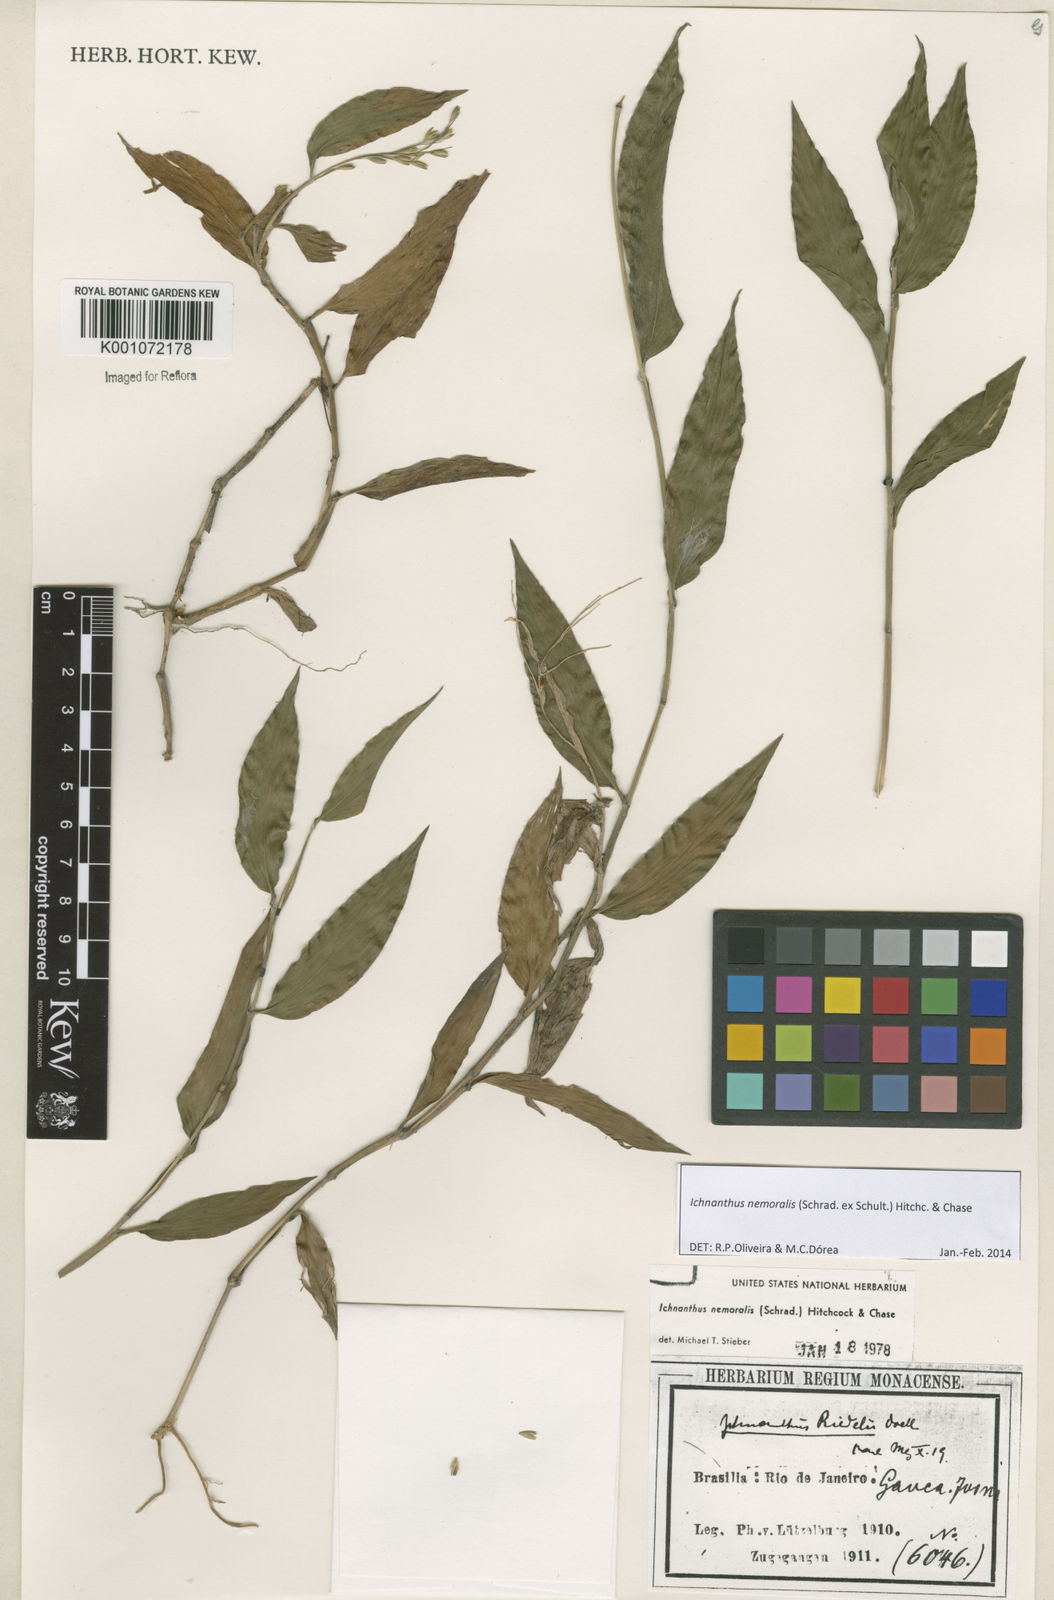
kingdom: Plantae
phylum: Tracheophyta
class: Liliopsida
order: Poales
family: Poaceae
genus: Ichnanthus
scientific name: Ichnanthus nemoralis
